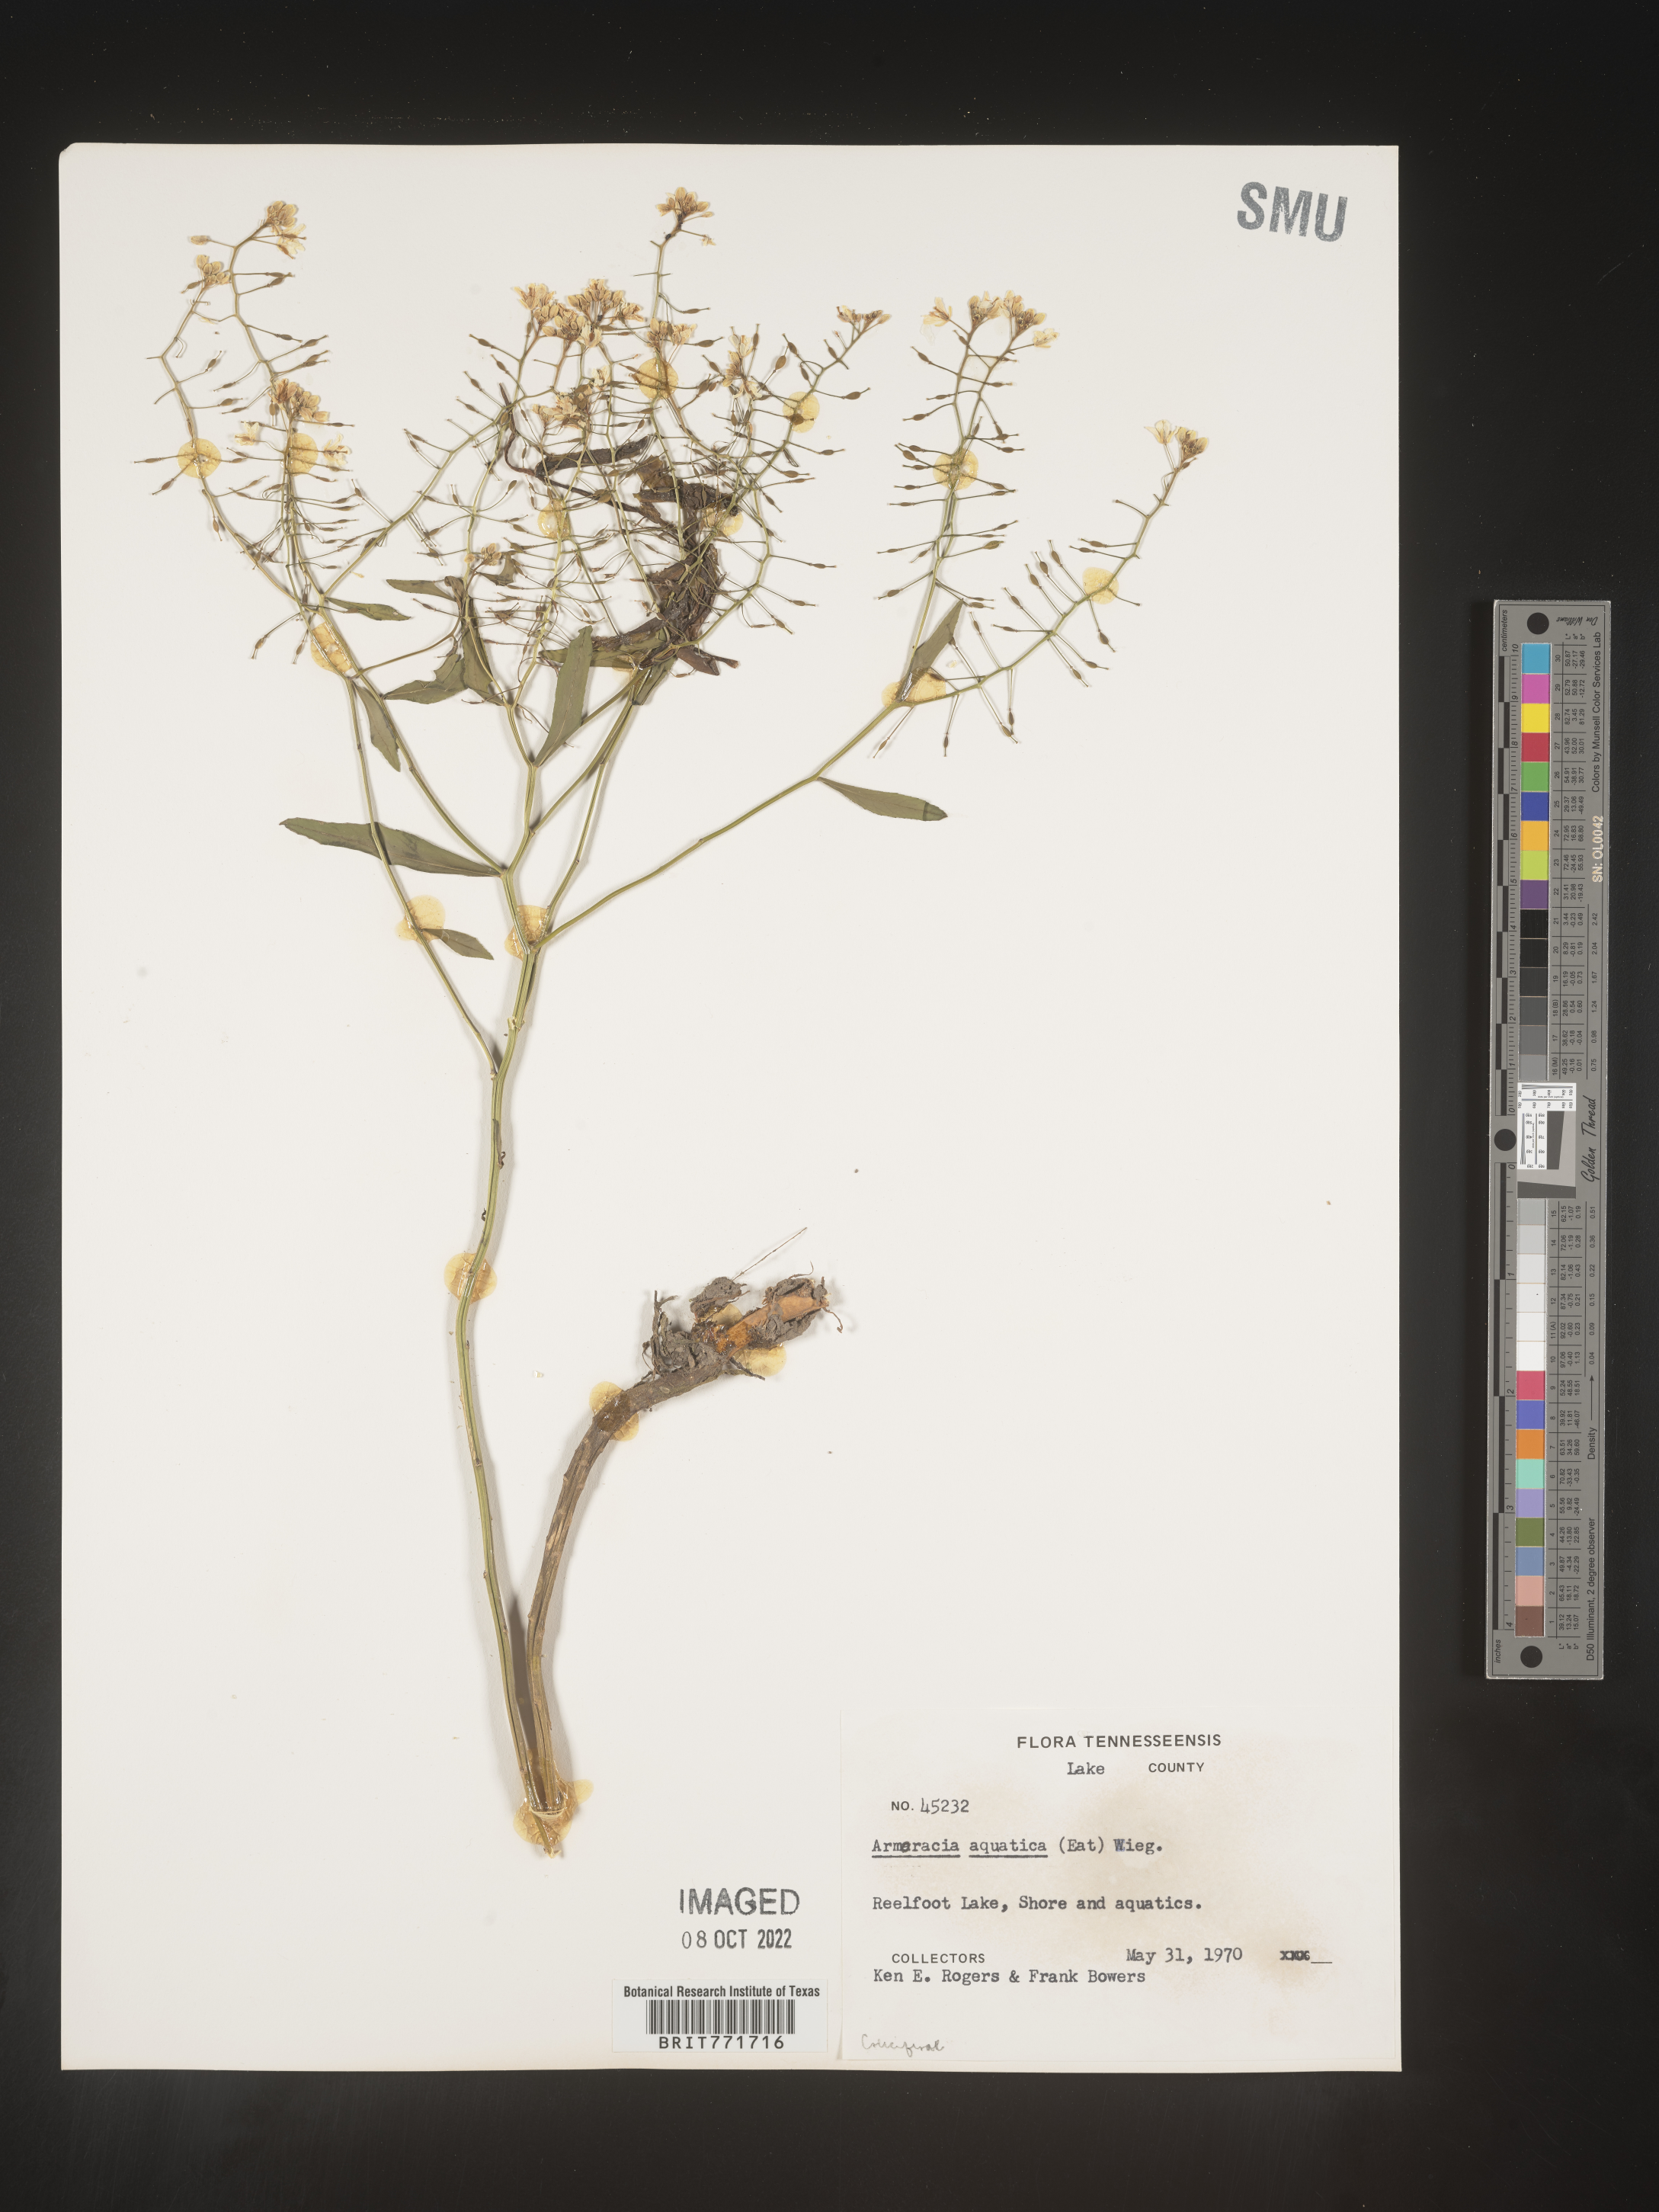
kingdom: Plantae
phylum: Tracheophyta
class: Magnoliopsida
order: Brassicales
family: Brassicaceae
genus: Armoracia
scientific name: Armoracia
